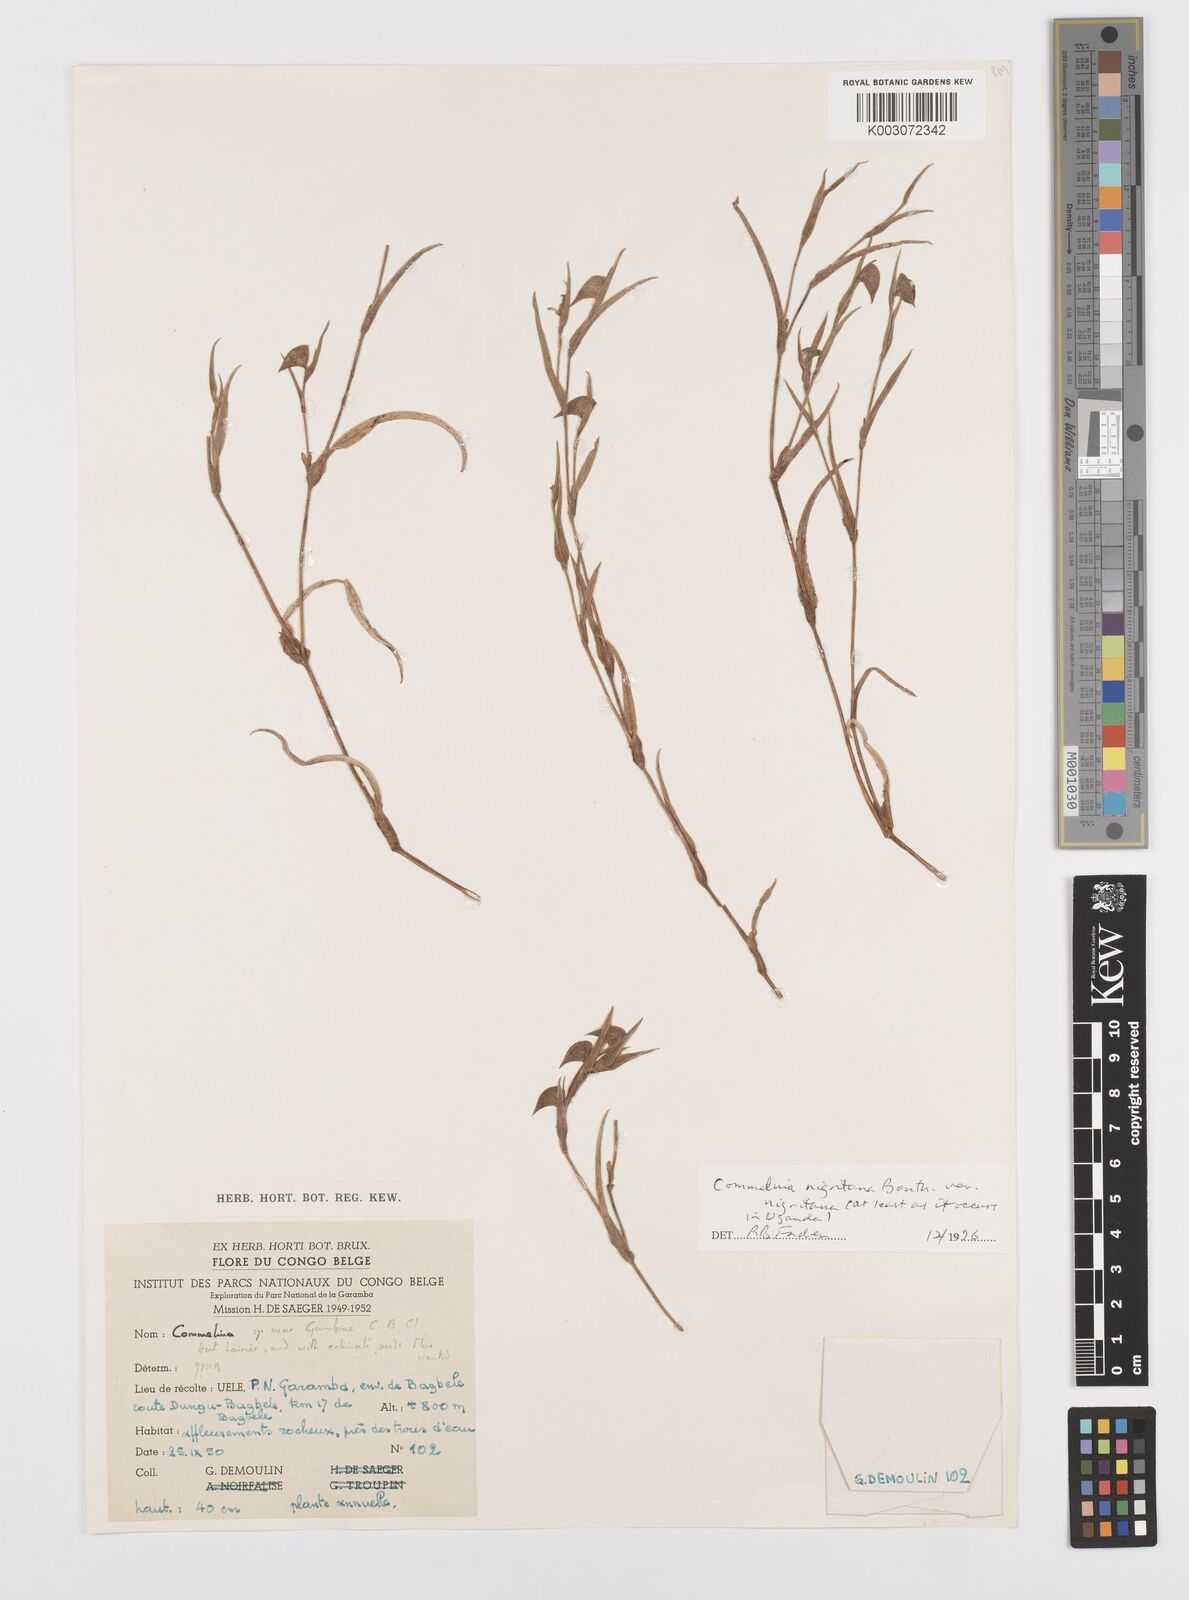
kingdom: Plantae
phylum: Tracheophyta
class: Liliopsida
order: Commelinales
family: Commelinaceae
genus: Commelina
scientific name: Commelina nigritana
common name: African dayflower
